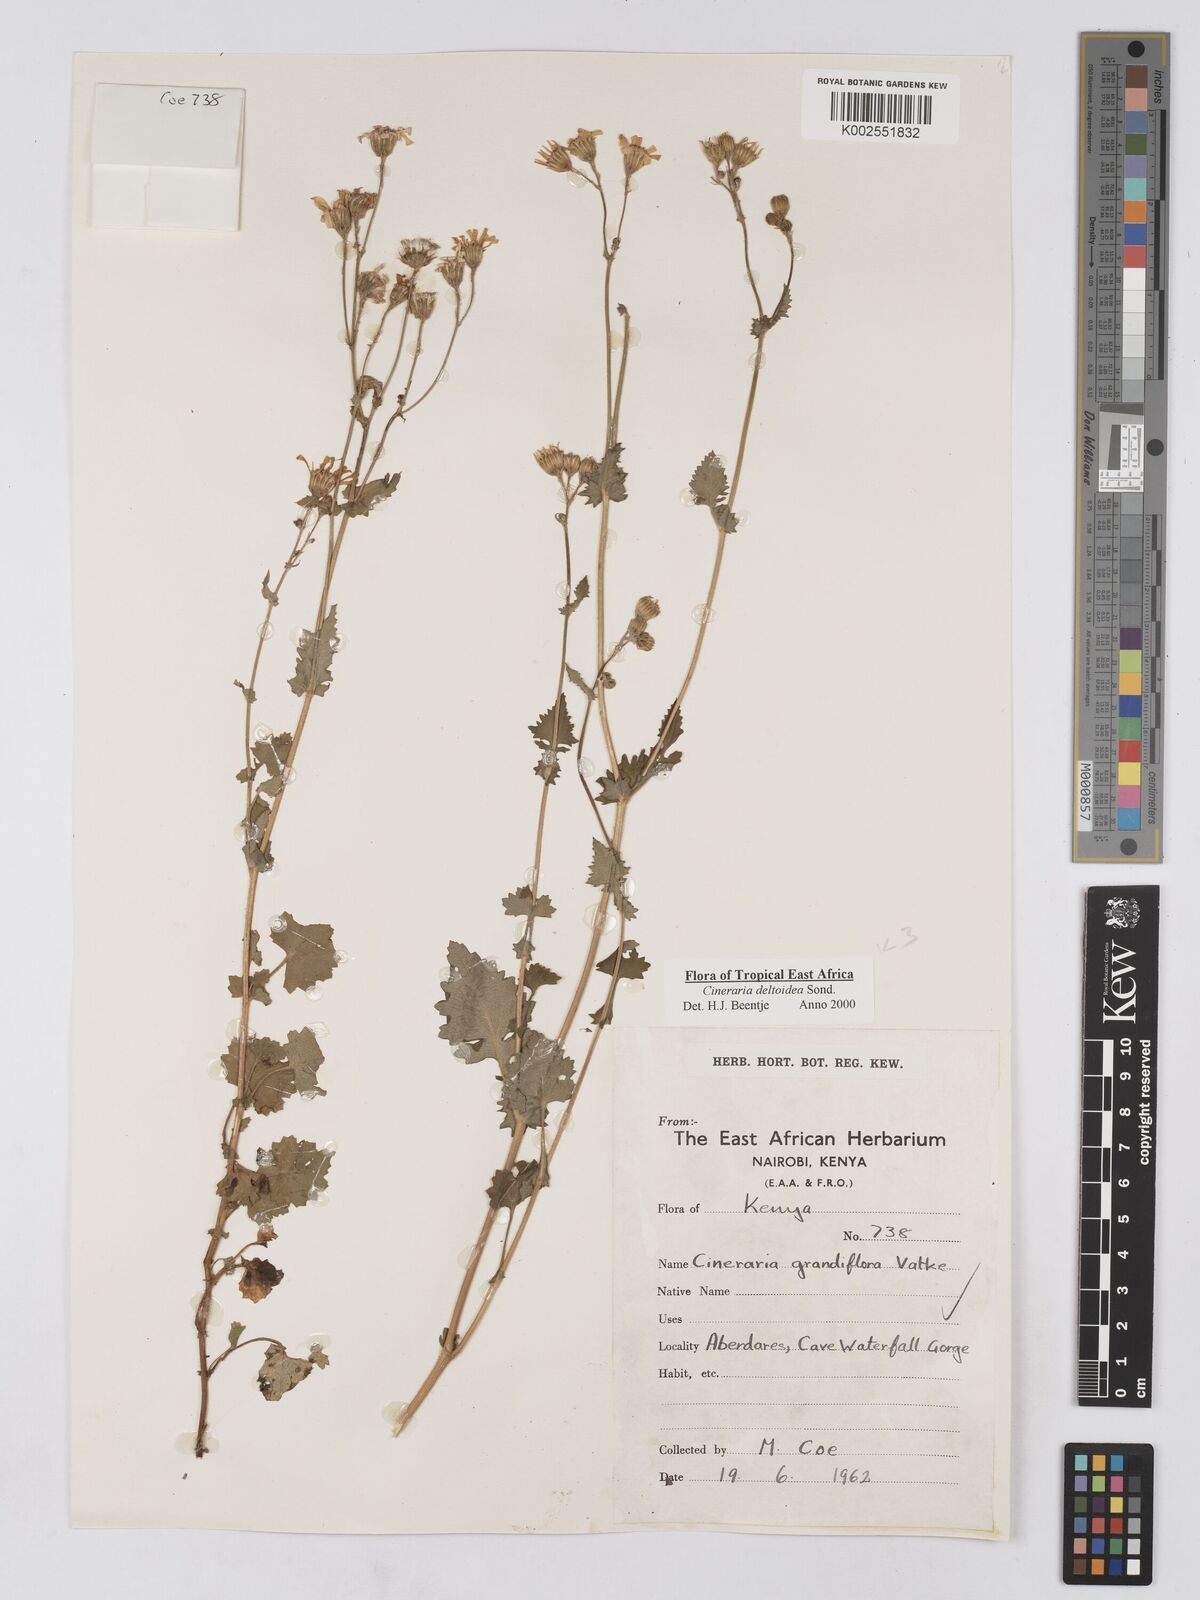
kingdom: Plantae
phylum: Tracheophyta
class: Magnoliopsida
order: Asterales
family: Asteraceae
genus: Cineraria
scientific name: Cineraria deltoidea
